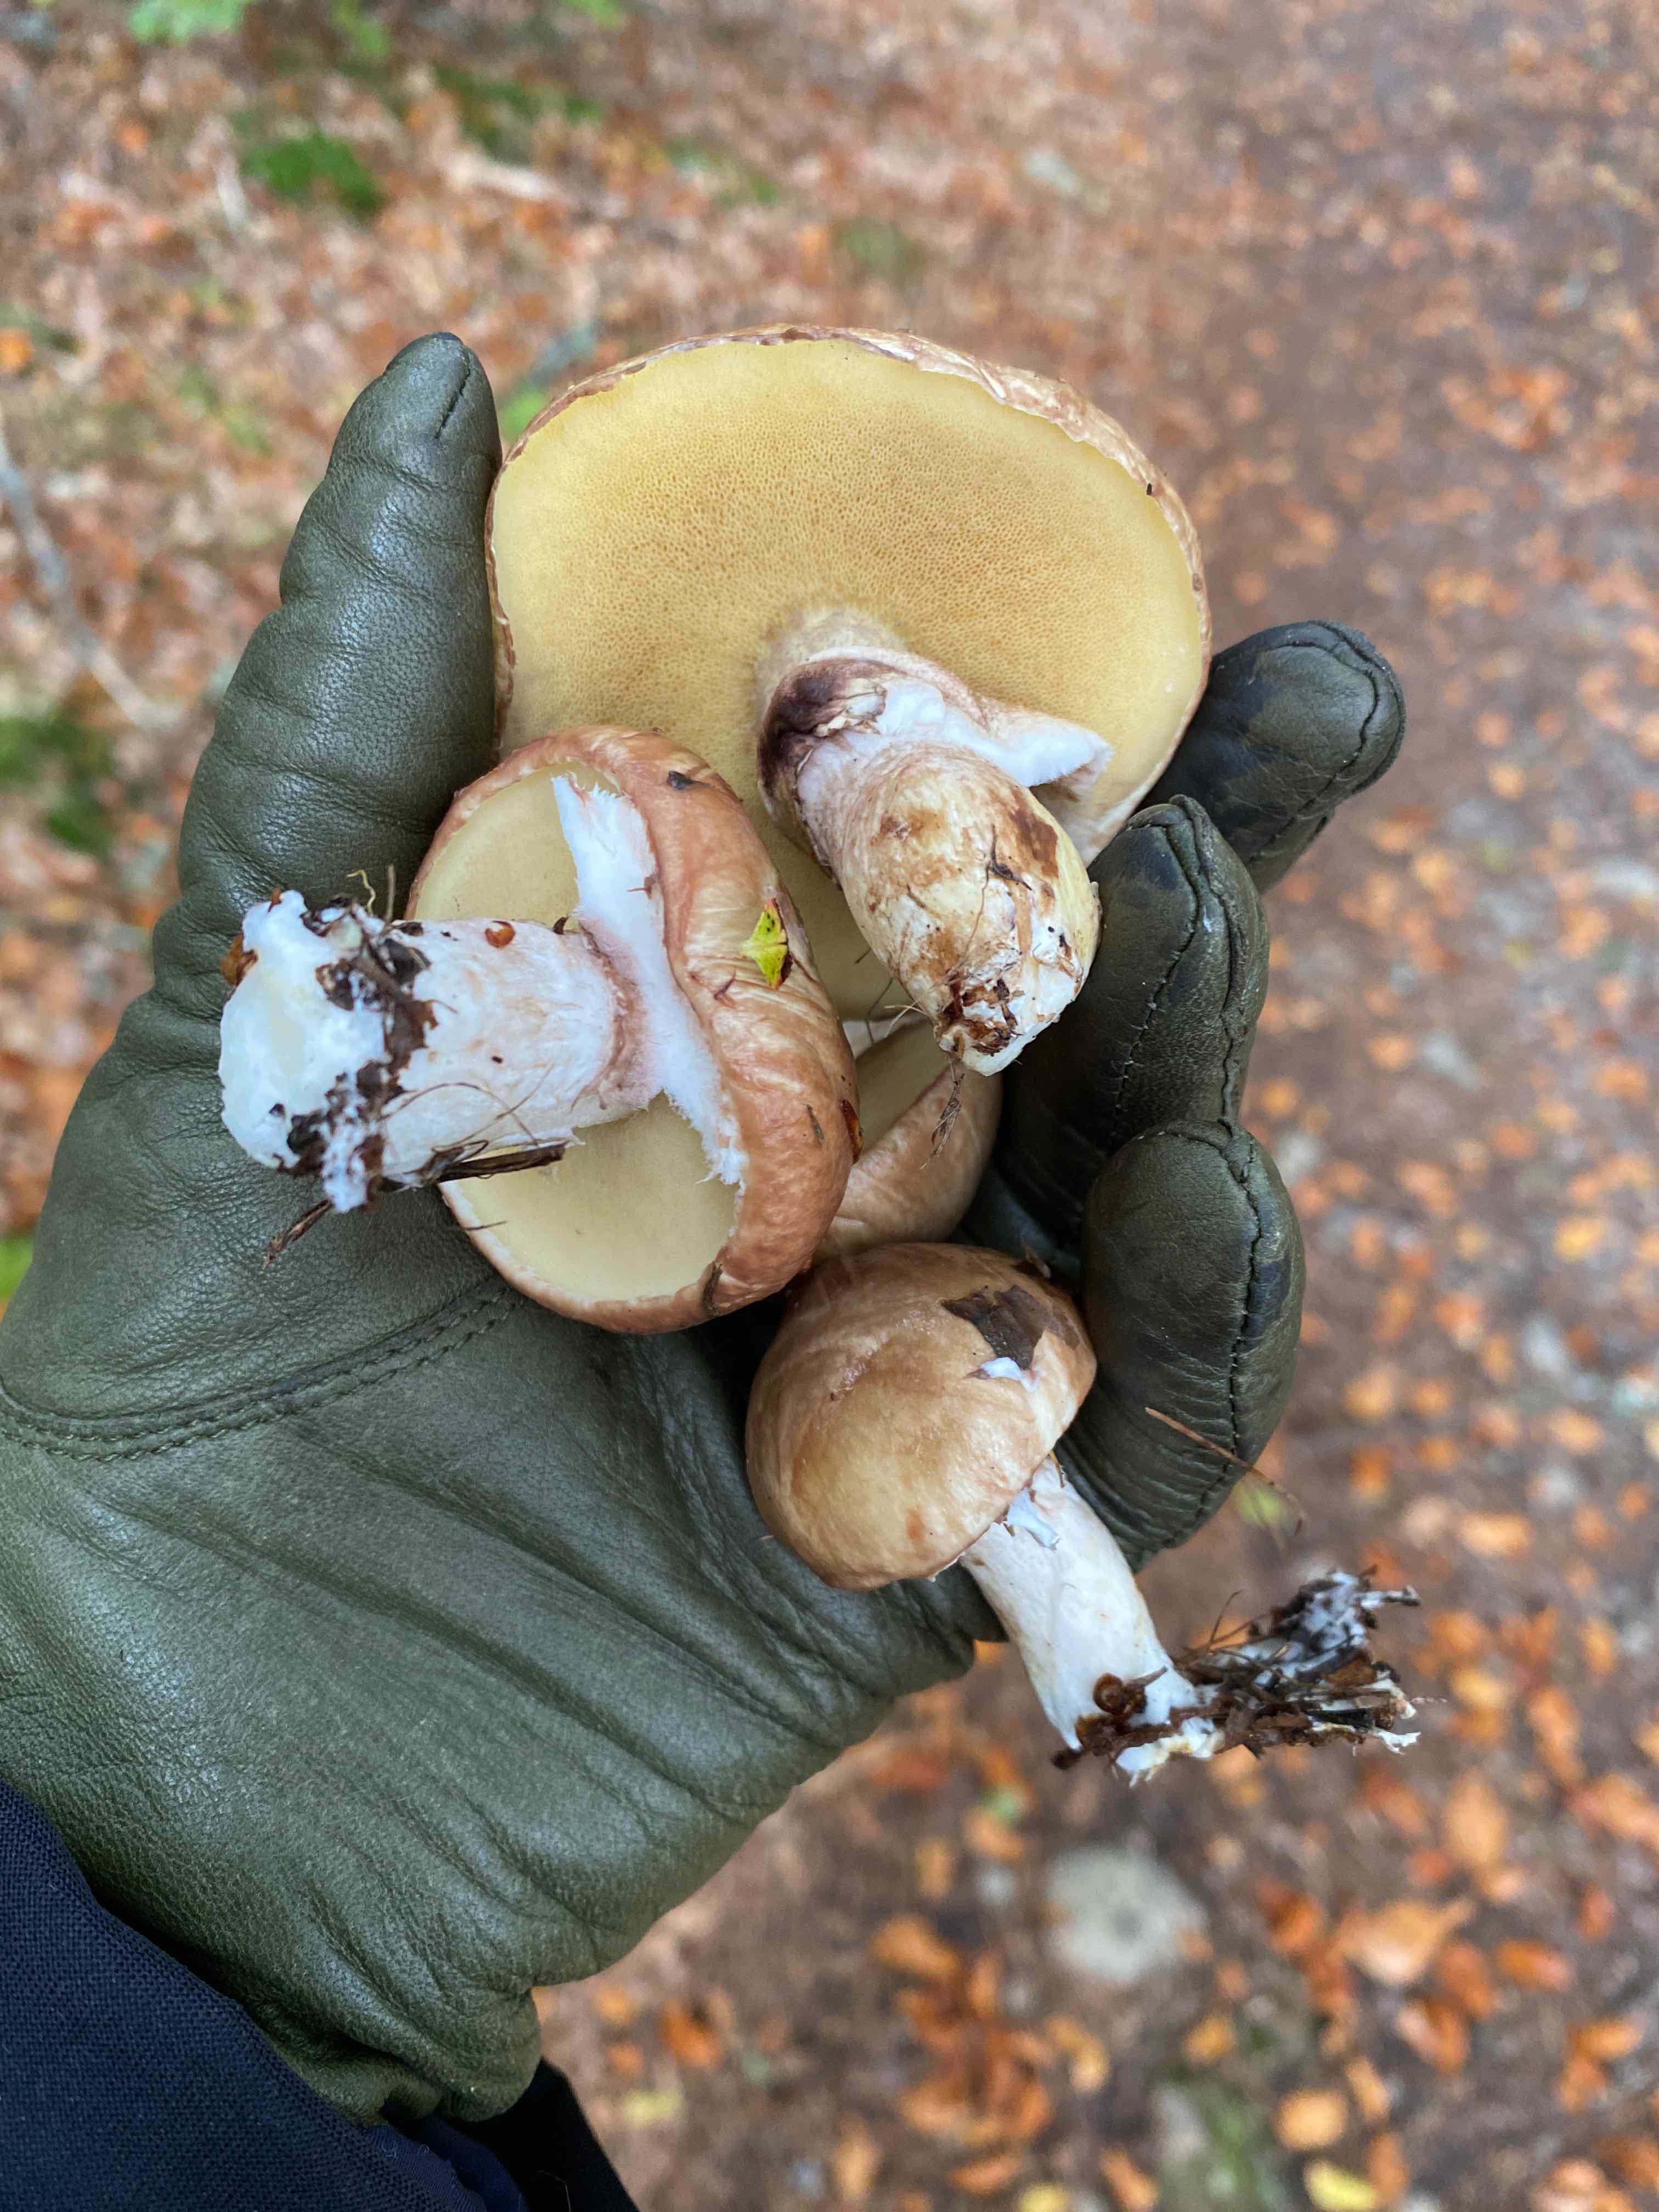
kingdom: Fungi
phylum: Basidiomycota
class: Agaricomycetes
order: Boletales
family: Suillaceae
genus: Suillus
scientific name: Suillus luteus
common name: brungul slimrørhat
